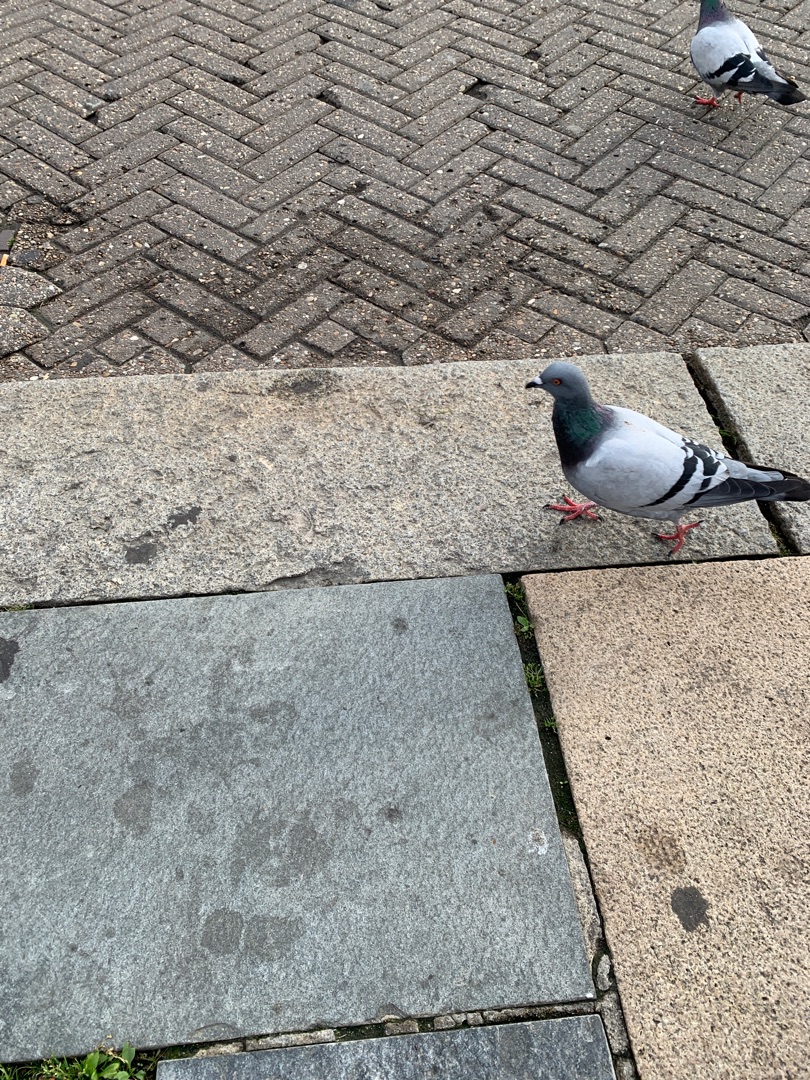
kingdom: Animalia
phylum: Chordata
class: Aves
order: Columbiformes
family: Columbidae
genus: Columba
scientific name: Columba livia
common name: Tamdue
